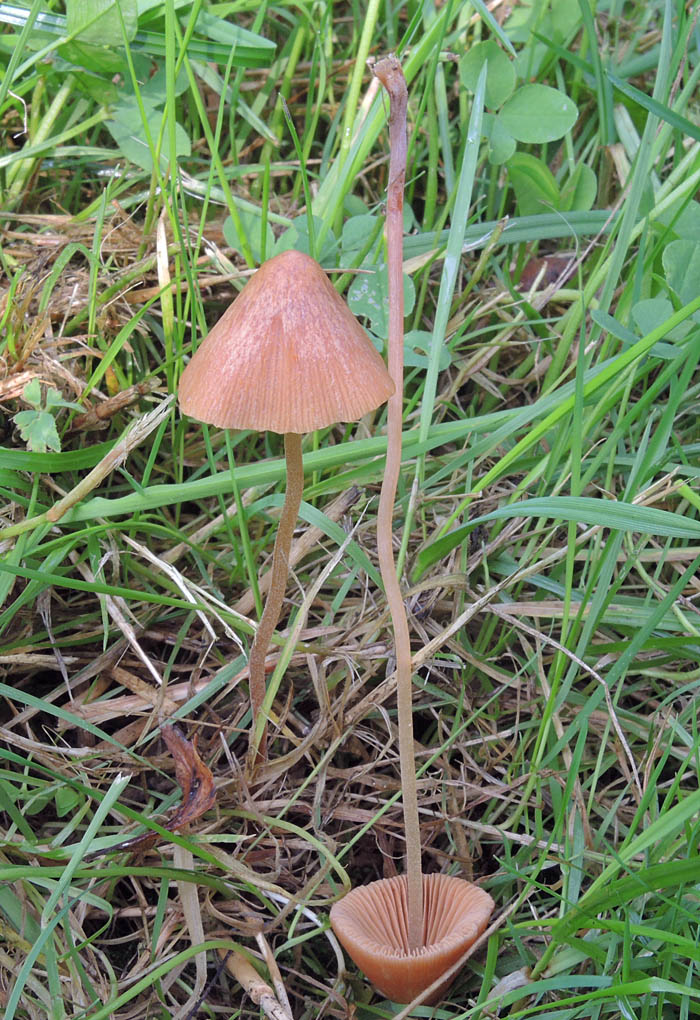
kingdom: Fungi
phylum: Basidiomycota
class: Agaricomycetes
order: Agaricales
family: Bolbitiaceae
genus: Conocybe
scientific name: Conocybe
